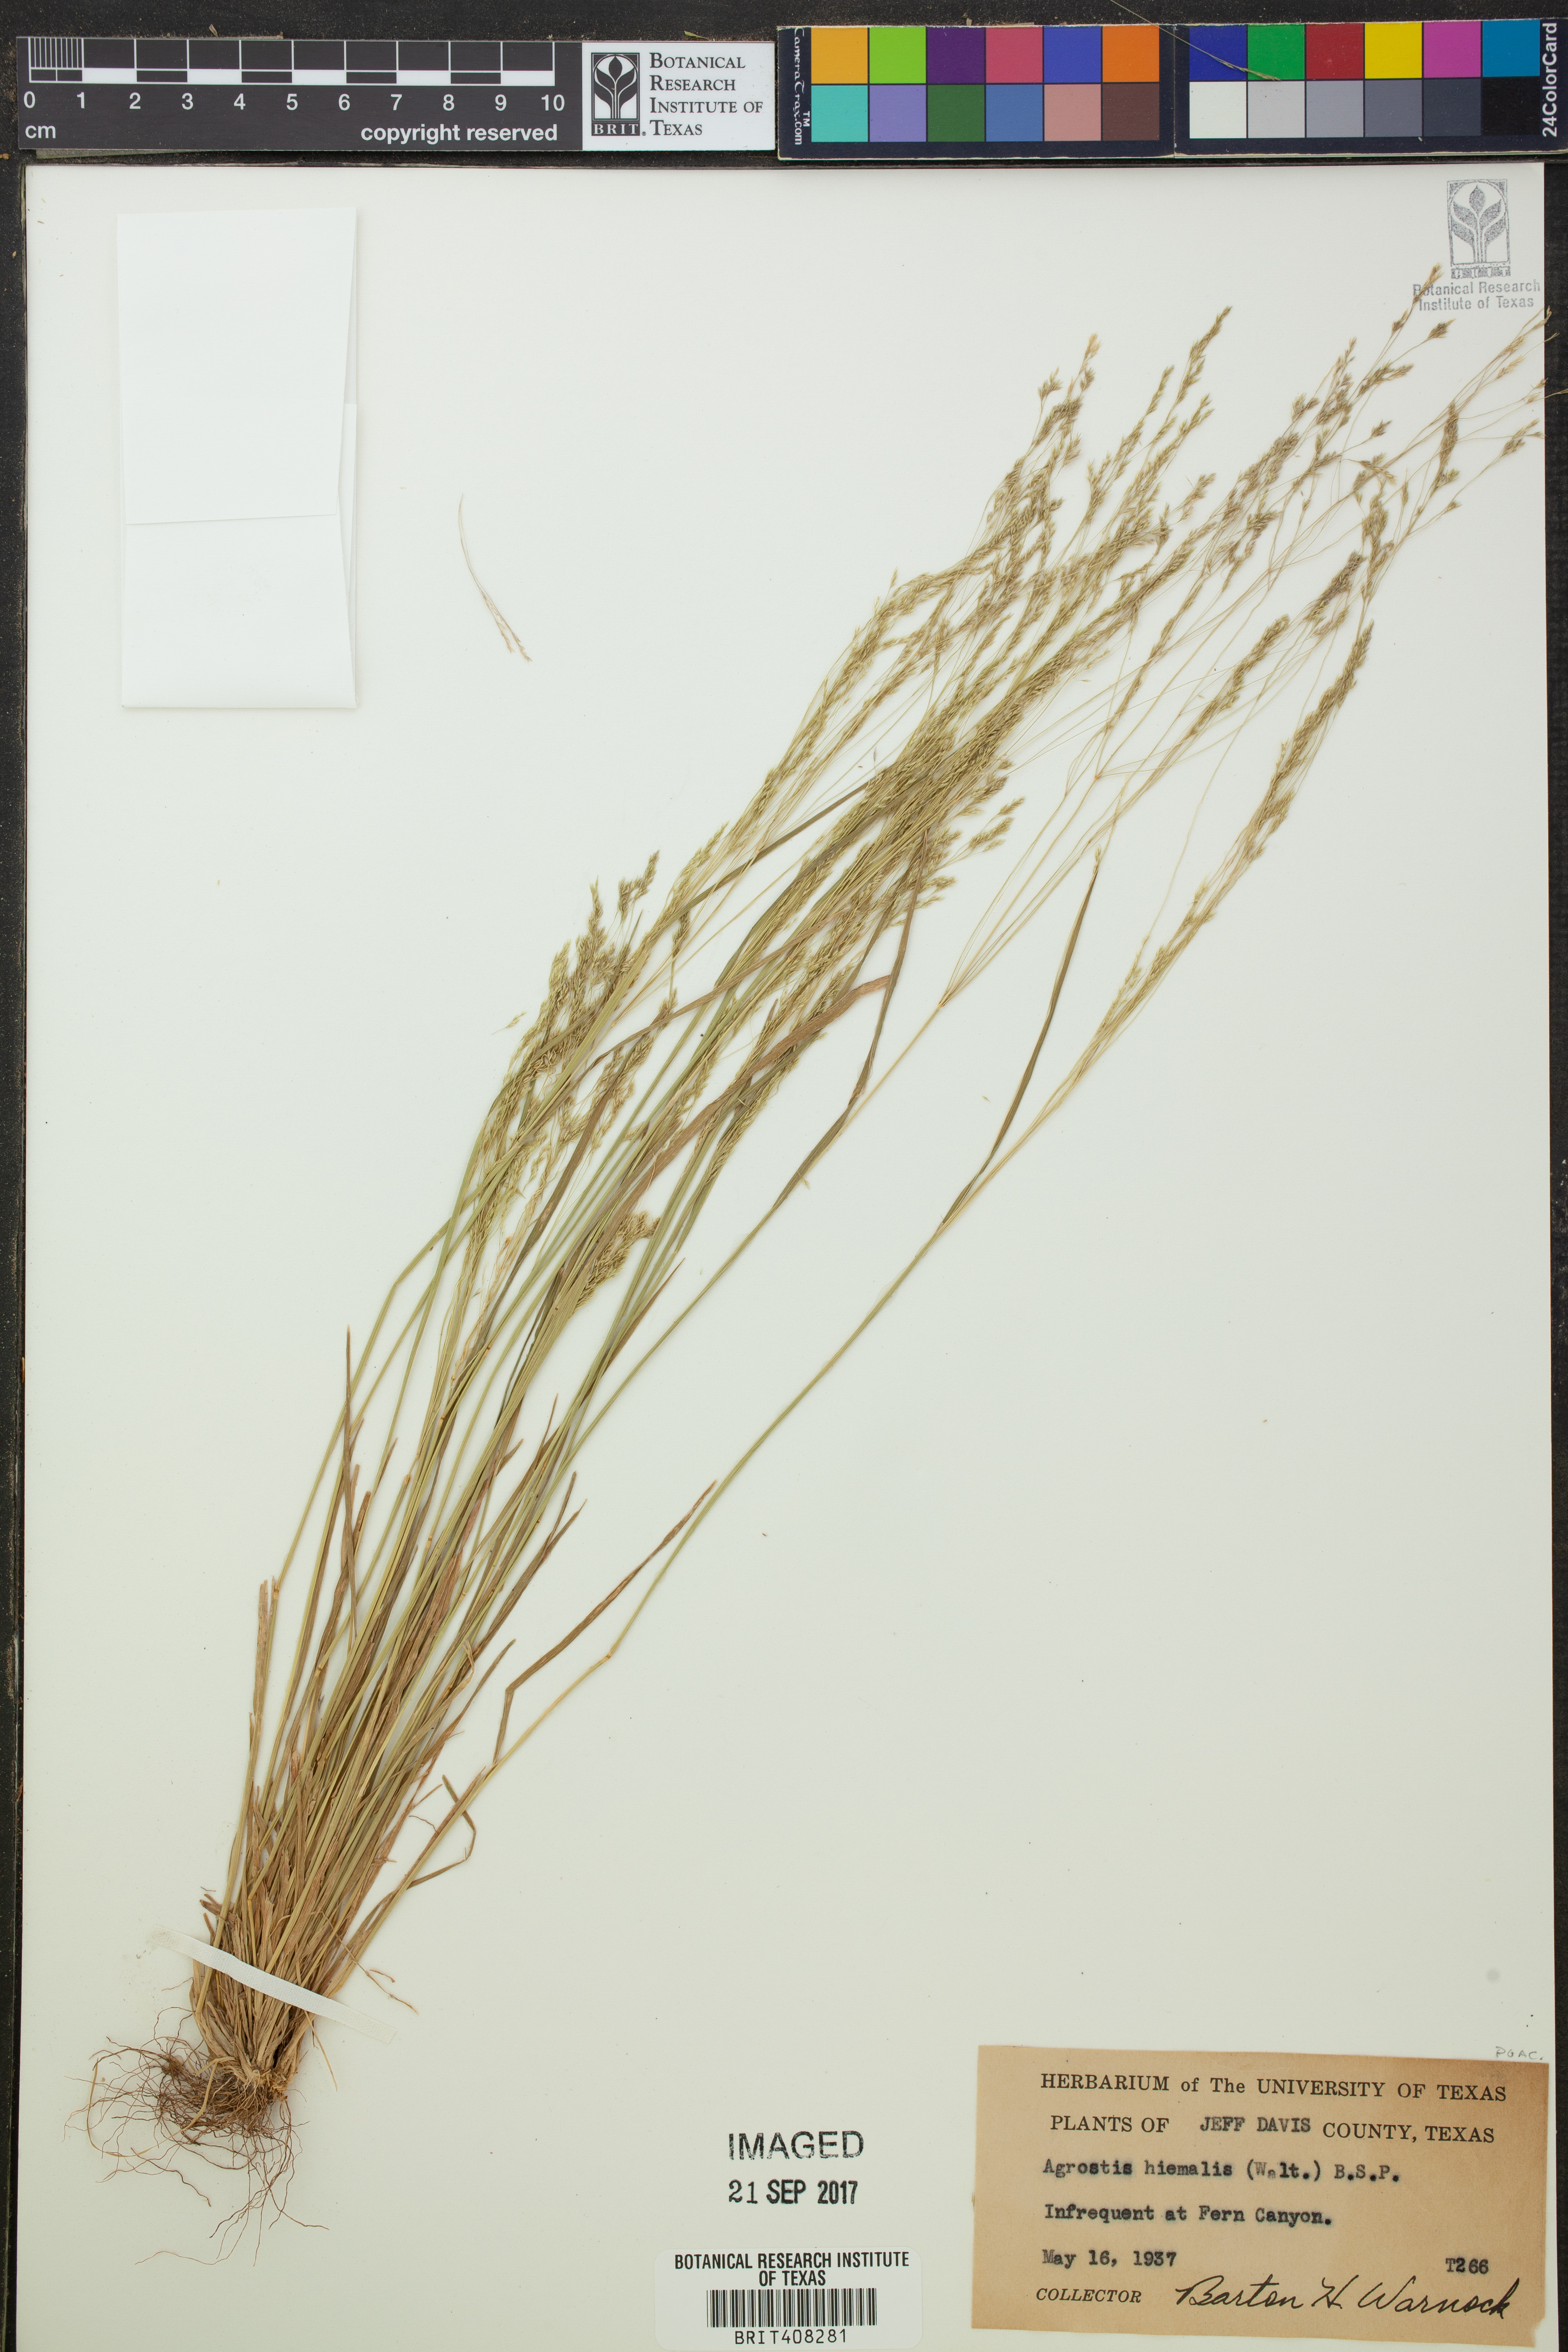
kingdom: Plantae
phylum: Tracheophyta
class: Liliopsida
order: Poales
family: Poaceae
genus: Agrostis
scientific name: Agrostis hyemalis
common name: Small bent
